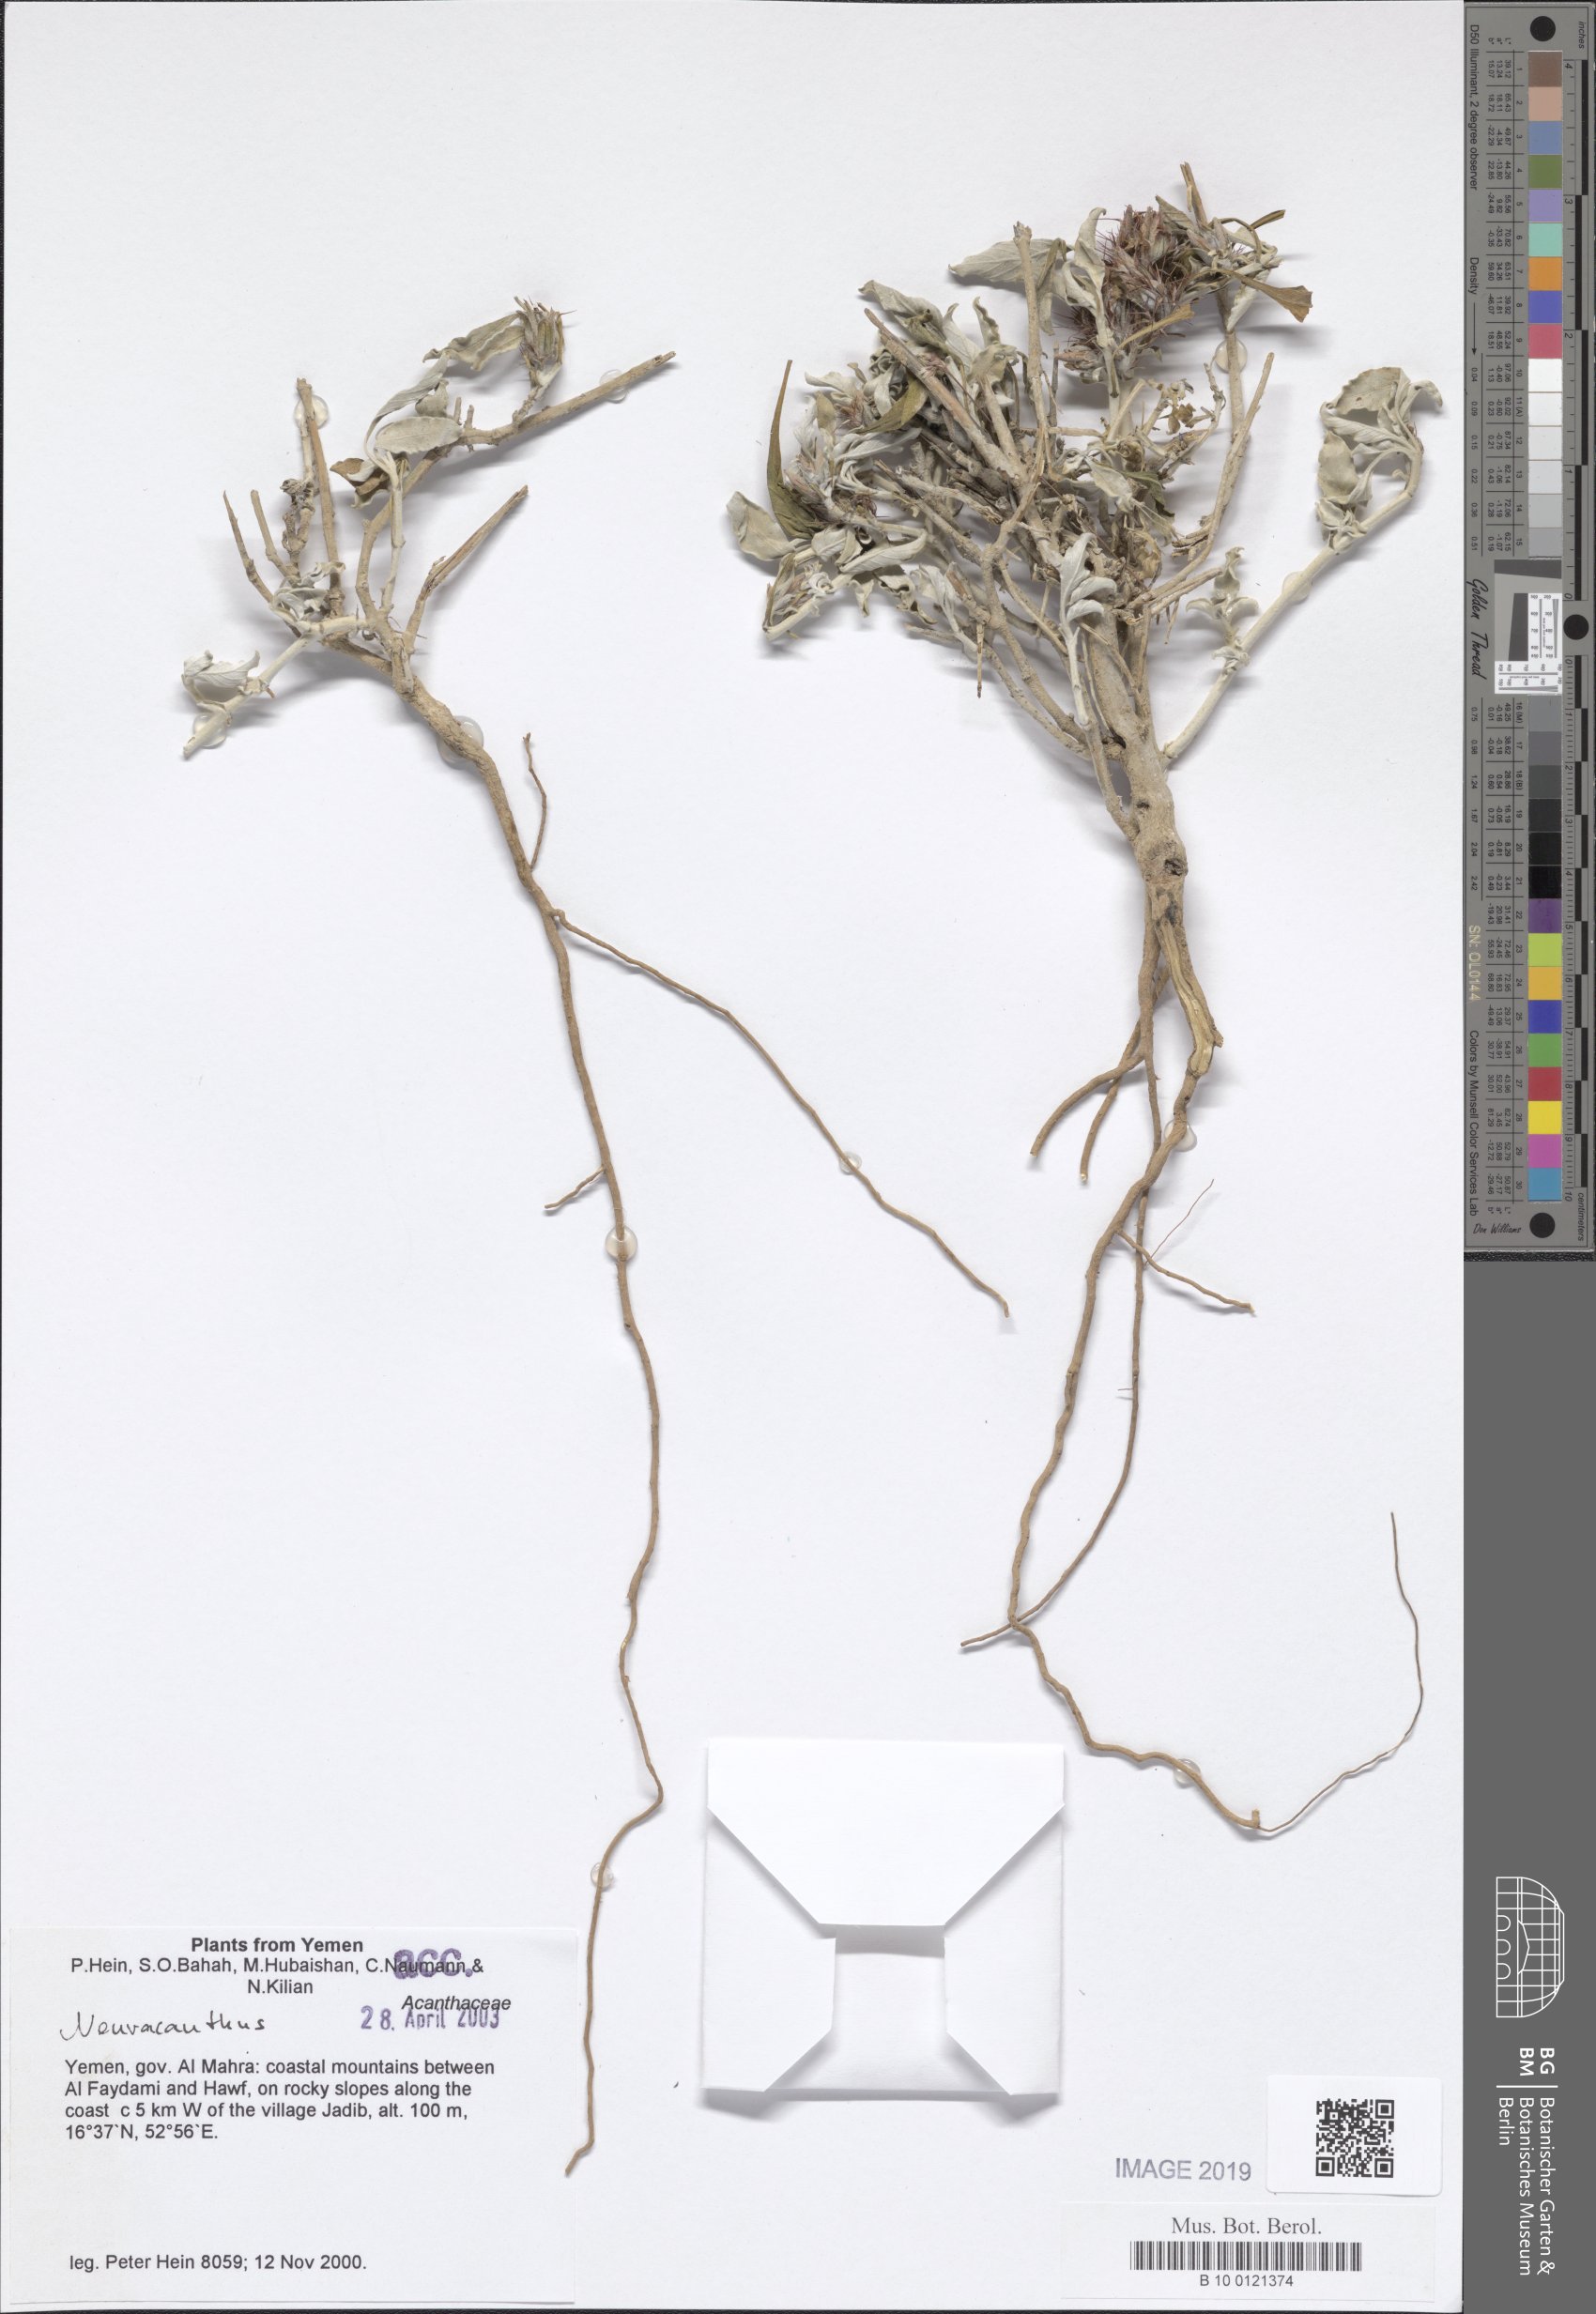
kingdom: Plantae
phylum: Tracheophyta
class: Magnoliopsida
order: Lamiales
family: Acanthaceae
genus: Neuracanthus
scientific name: Neuracanthus
